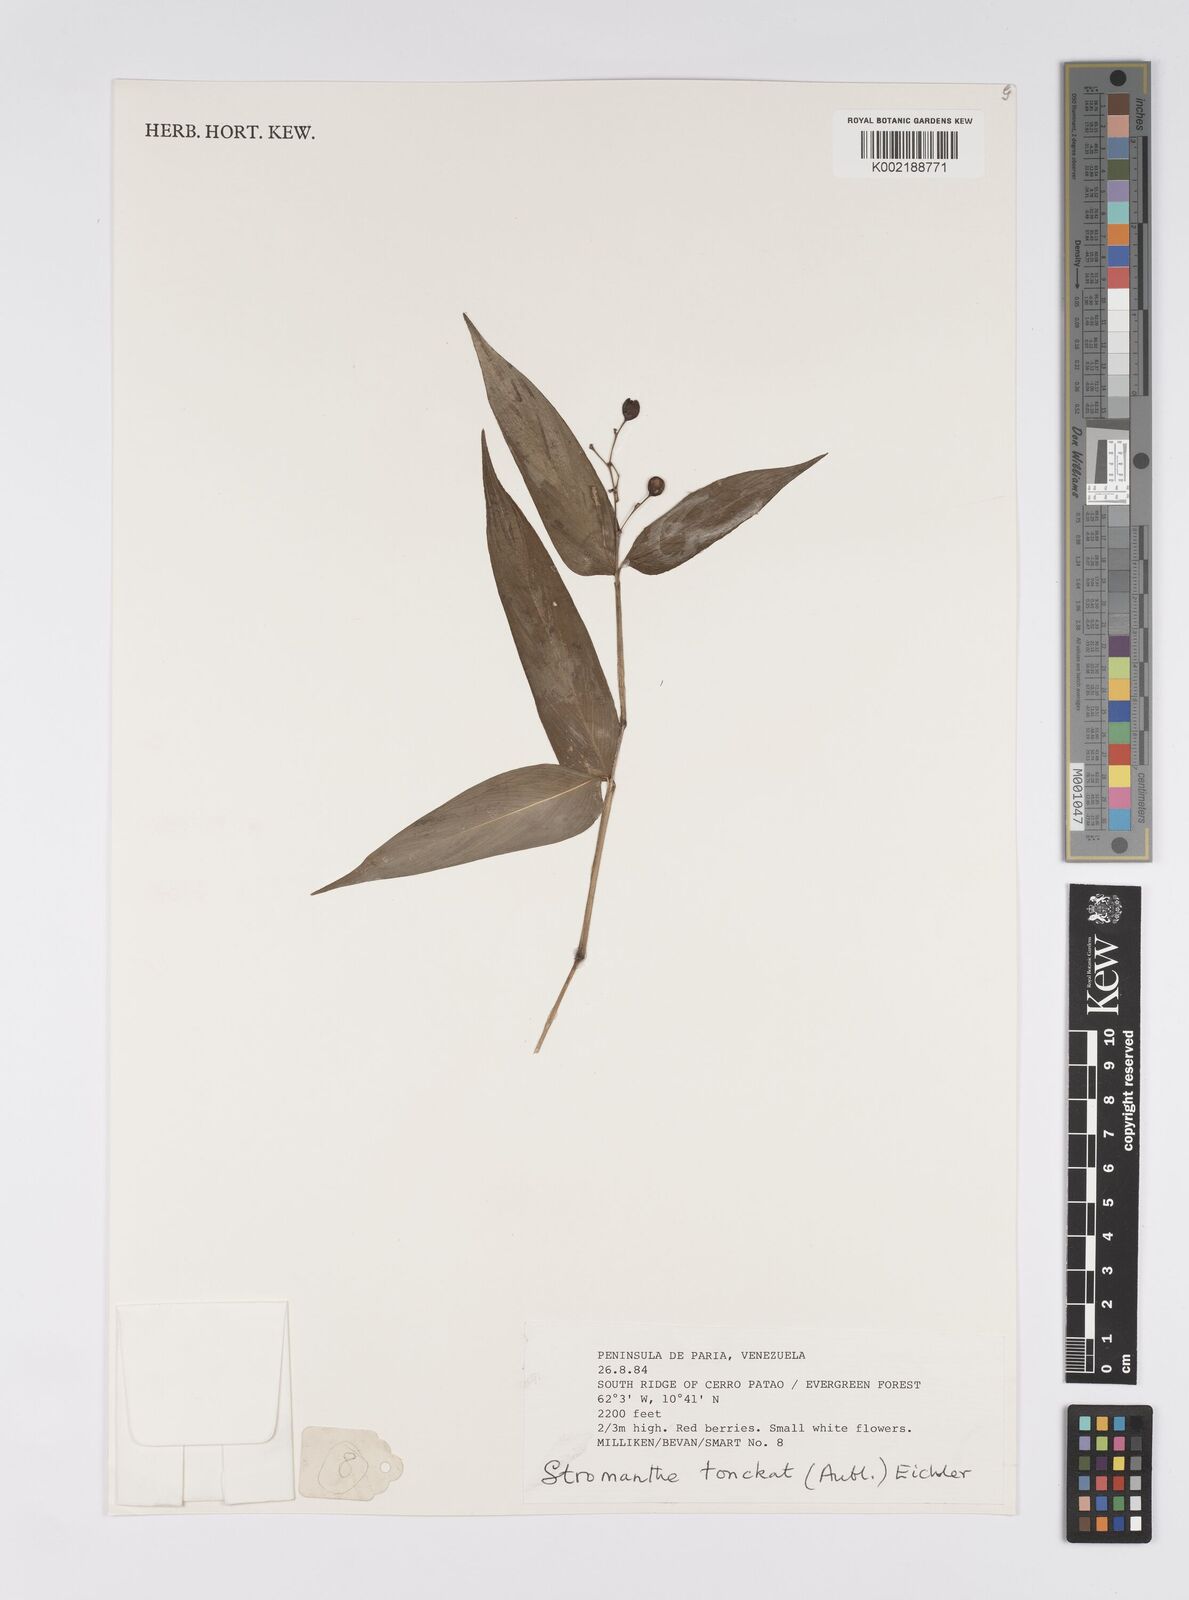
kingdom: Plantae
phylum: Tracheophyta
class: Liliopsida
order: Zingiberales
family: Marantaceae
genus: Stromanthe
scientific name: Stromanthe tonckat
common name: Stromanthe
